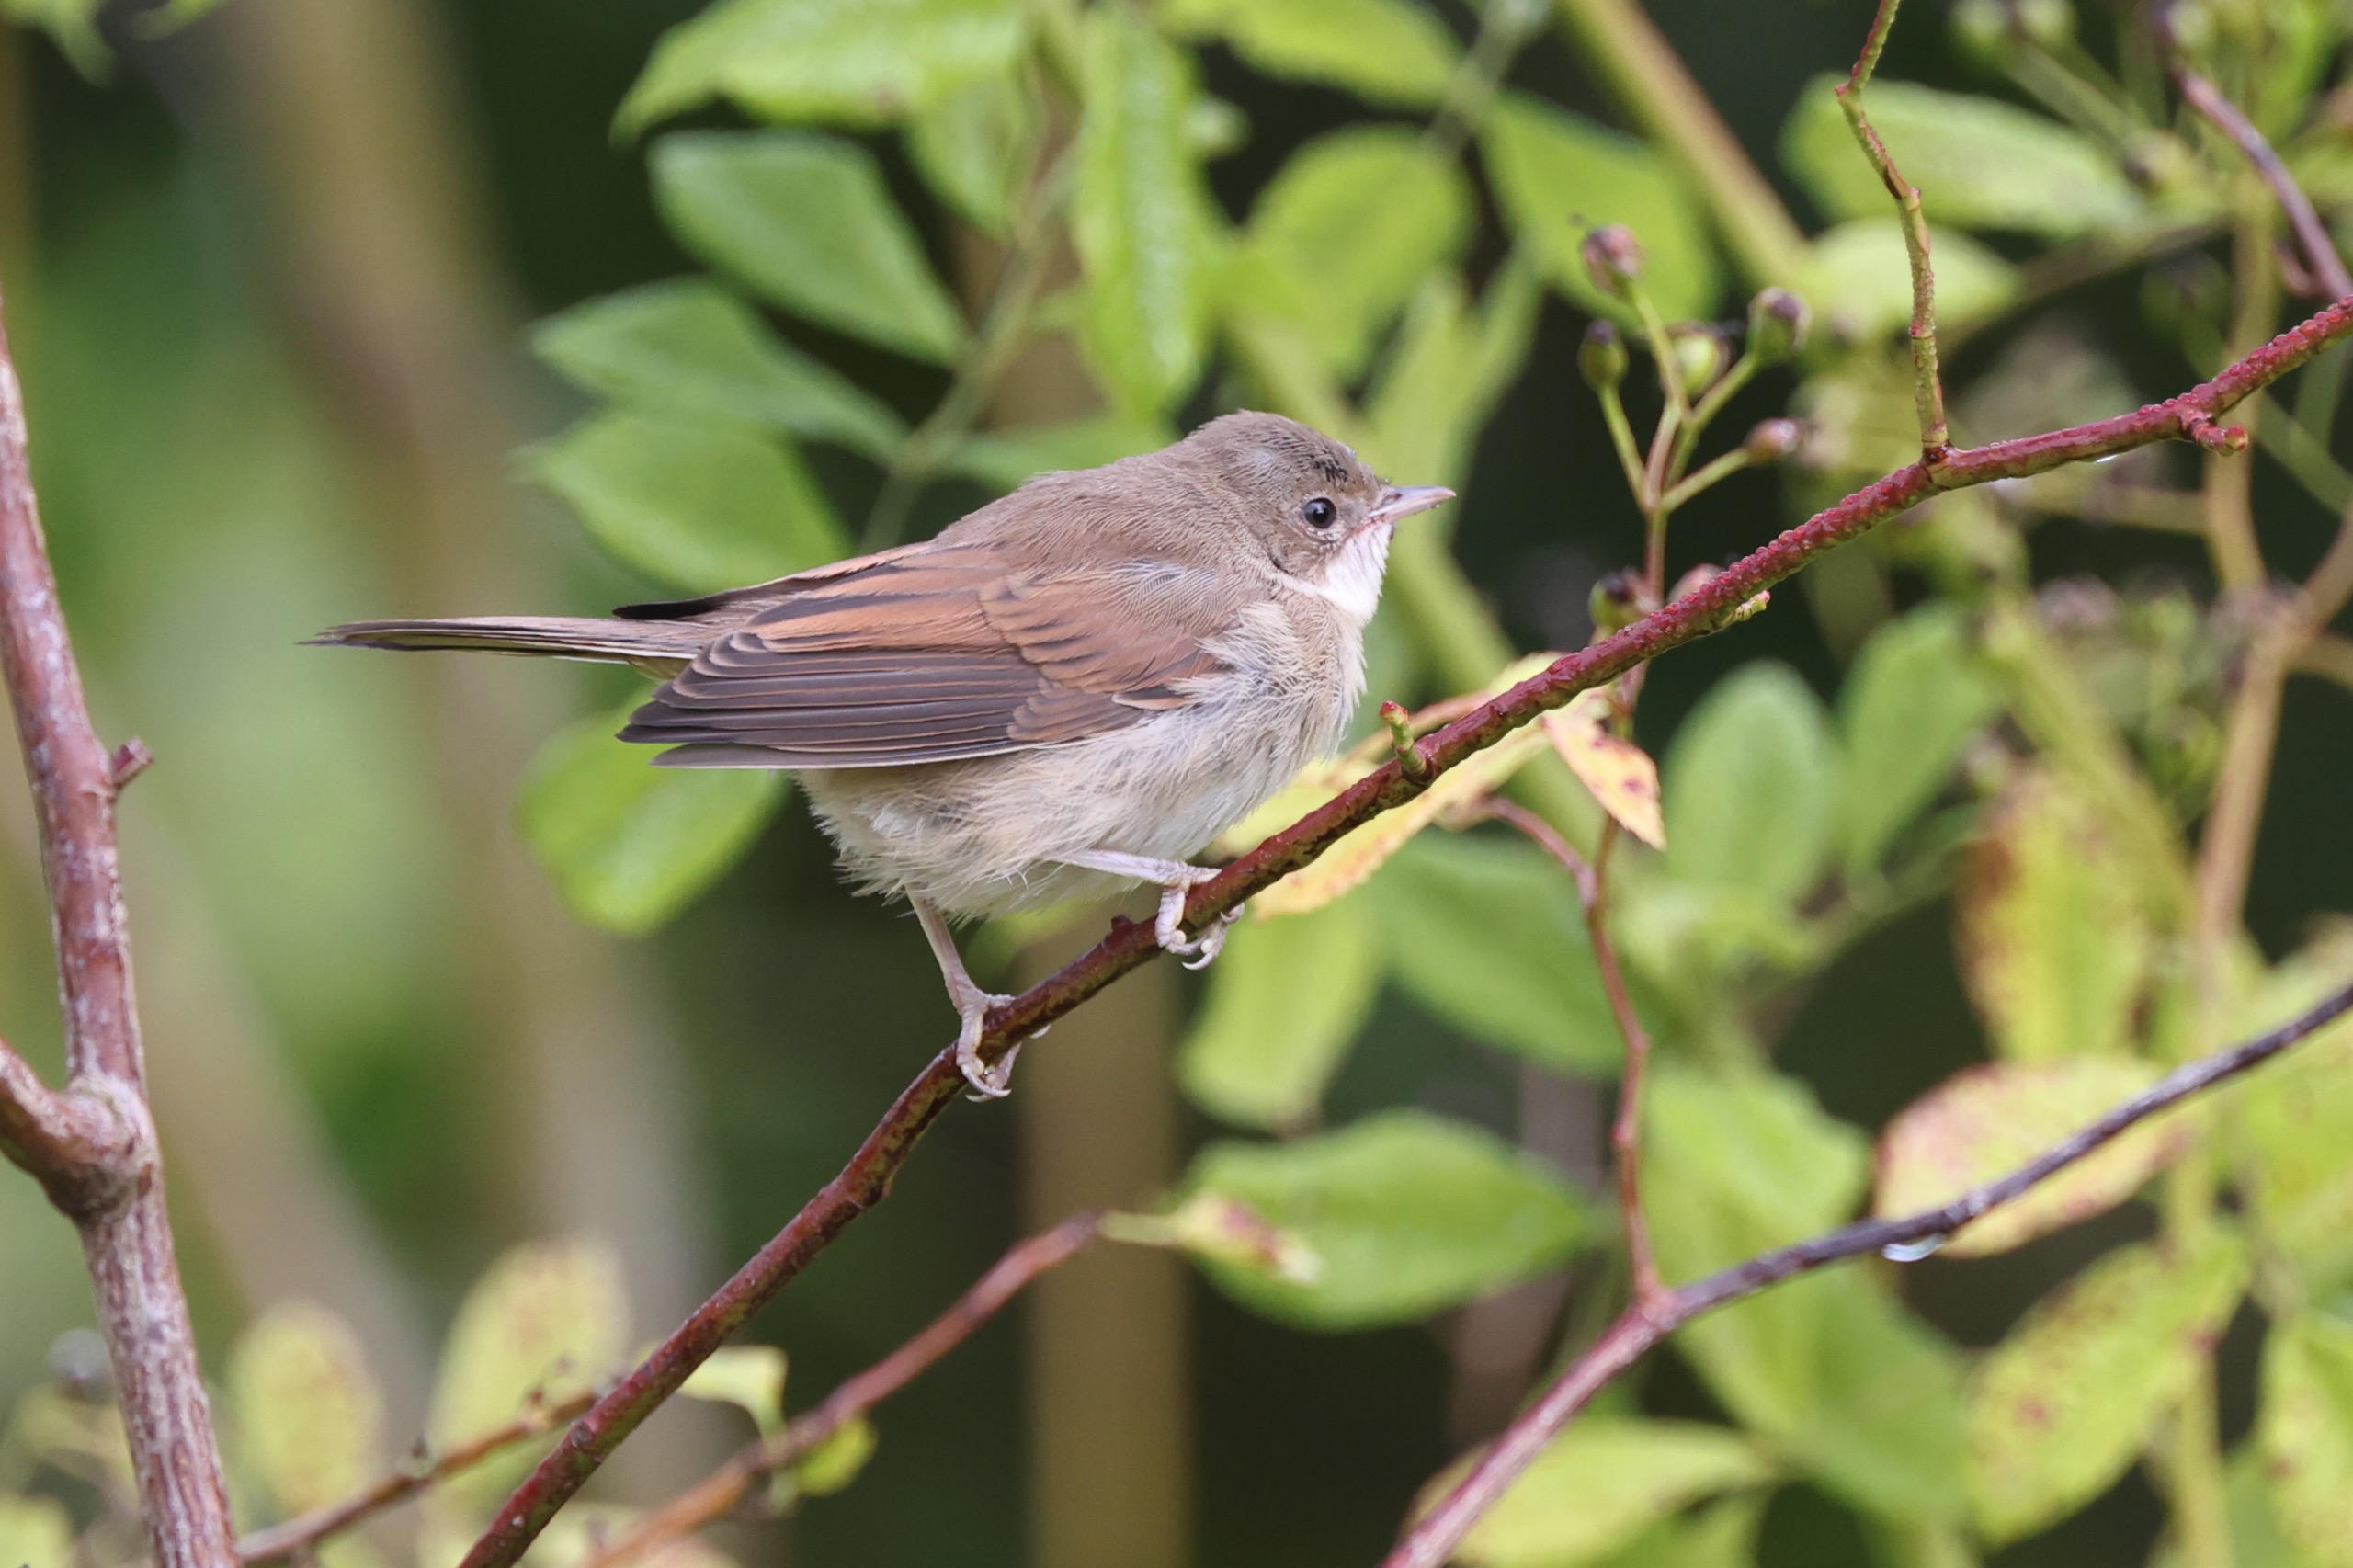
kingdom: Animalia
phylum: Chordata
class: Aves
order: Passeriformes
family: Sylviidae
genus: Sylvia
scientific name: Sylvia communis
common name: Tornsanger
